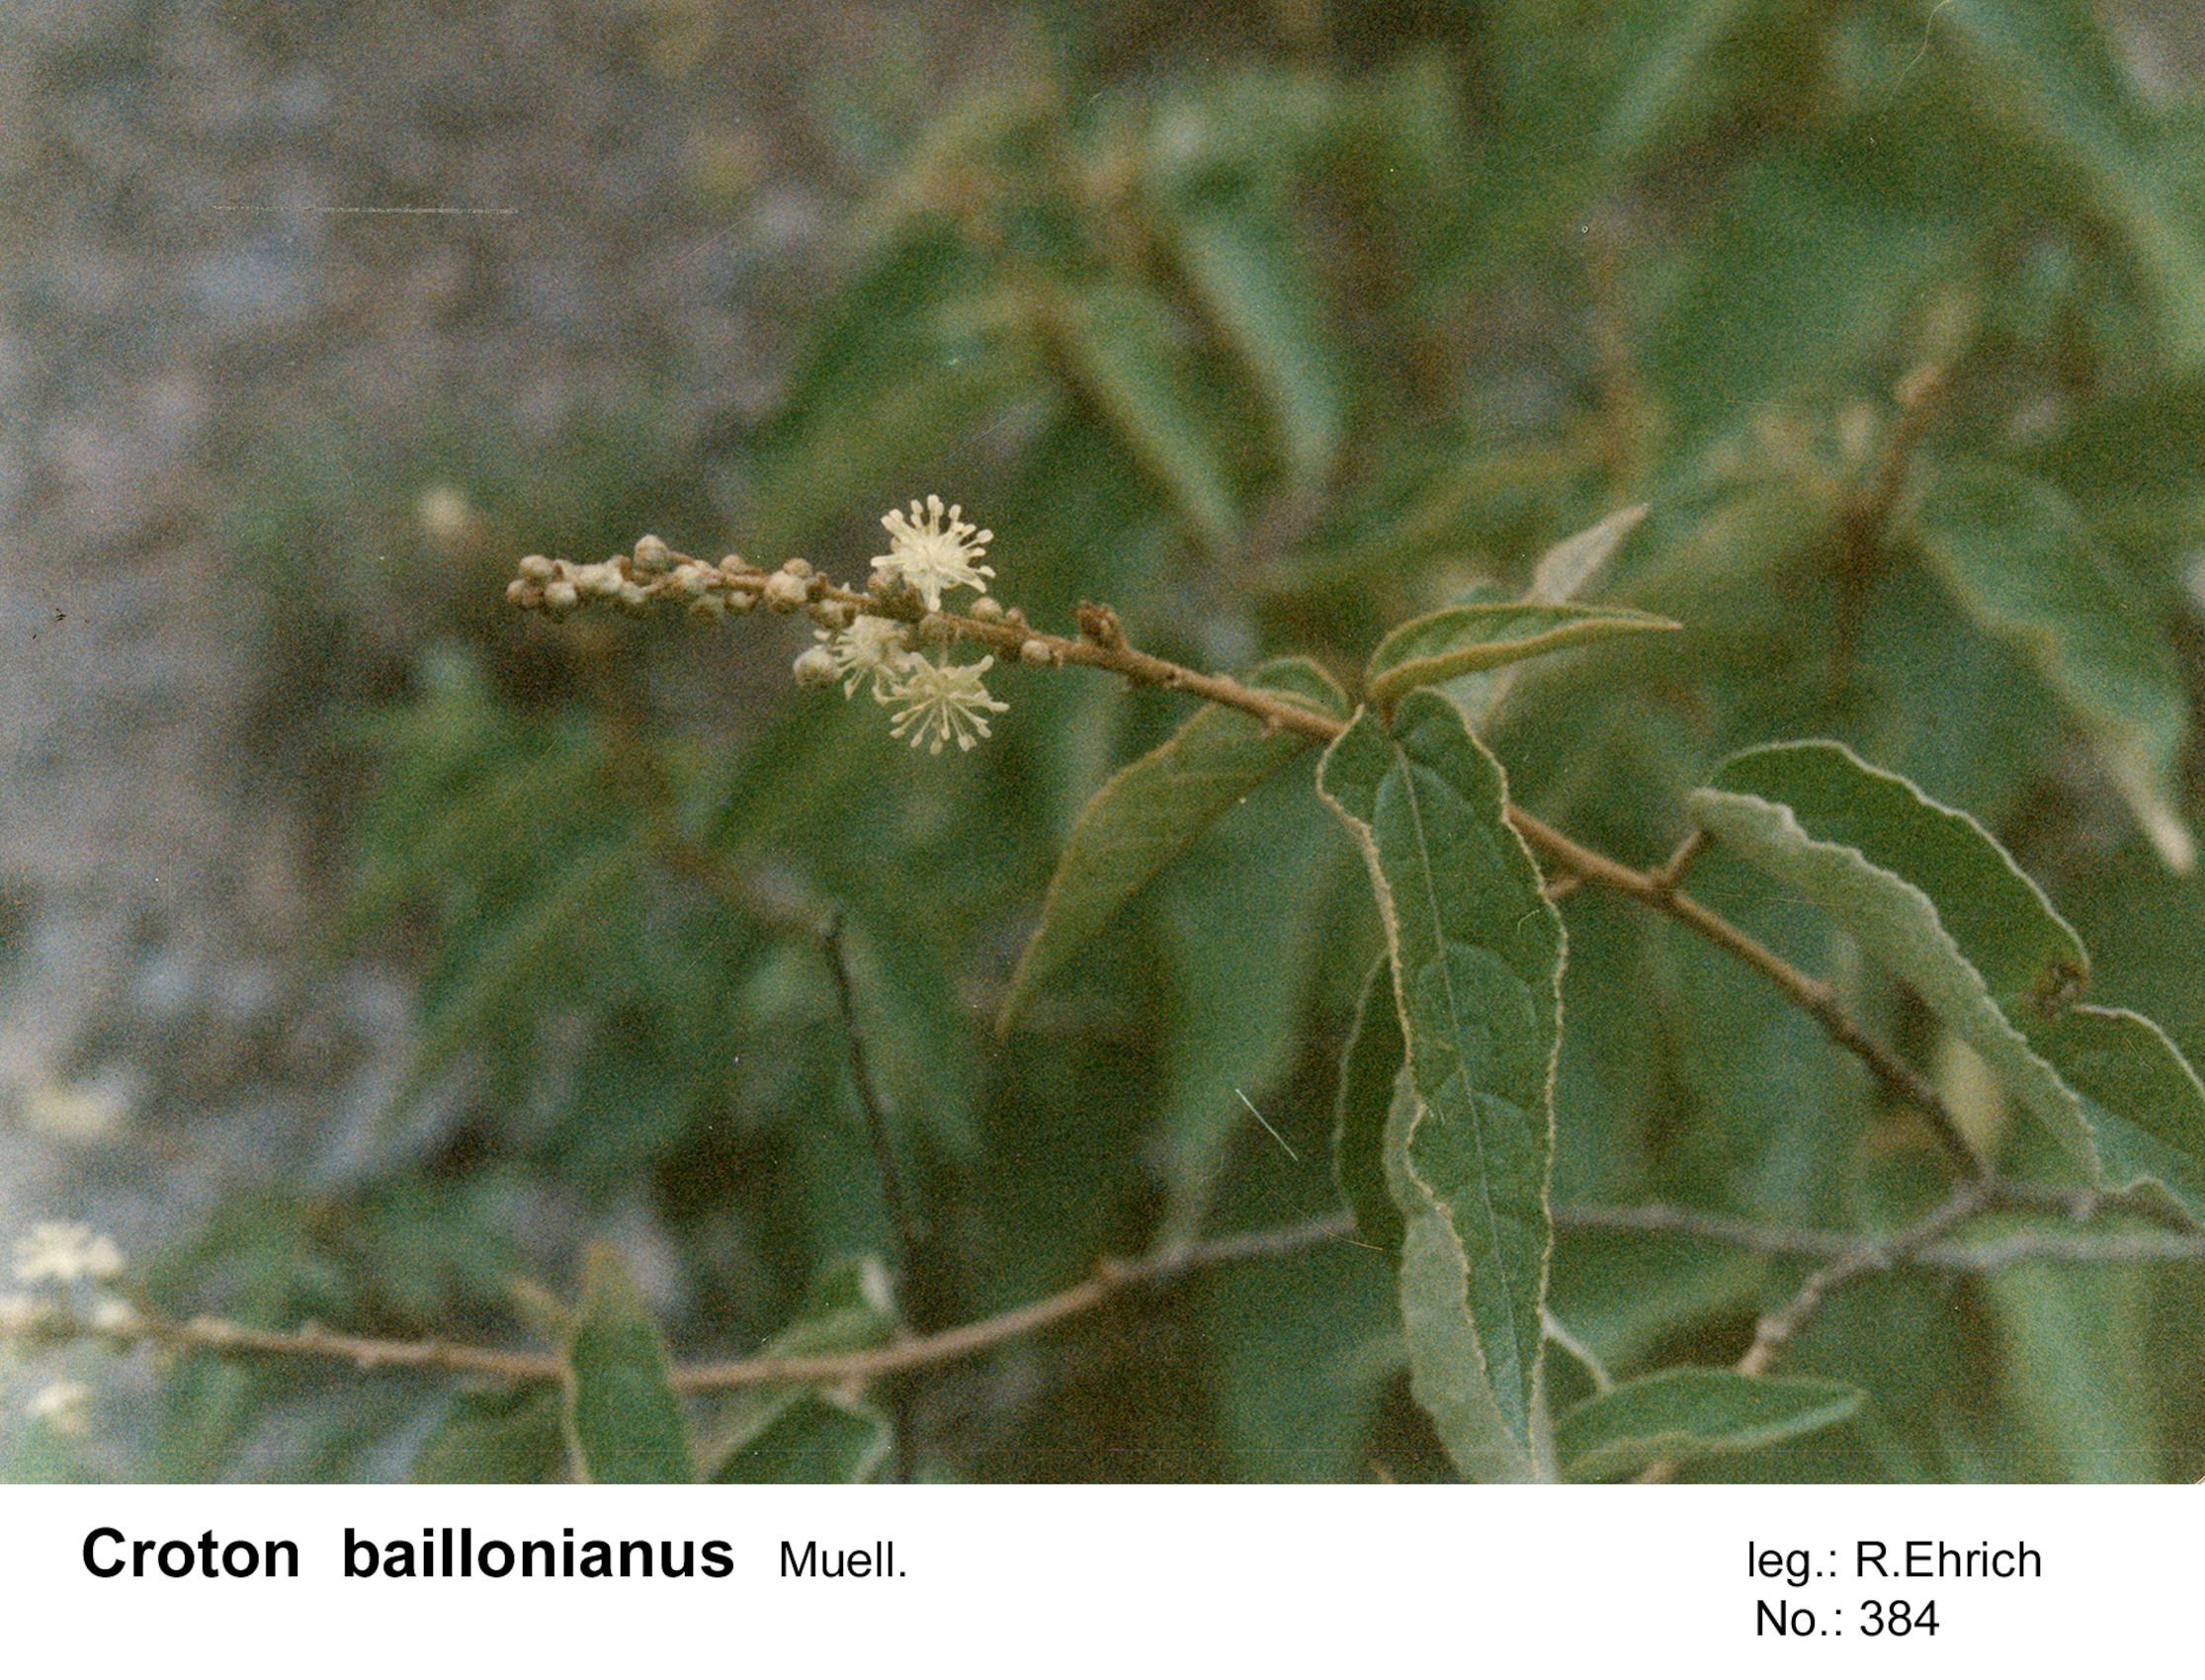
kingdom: Plantae
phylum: Tracheophyta
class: Magnoliopsida
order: Malpighiales
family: Euphorbiaceae
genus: Croton
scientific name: Croton quadrisetosus
